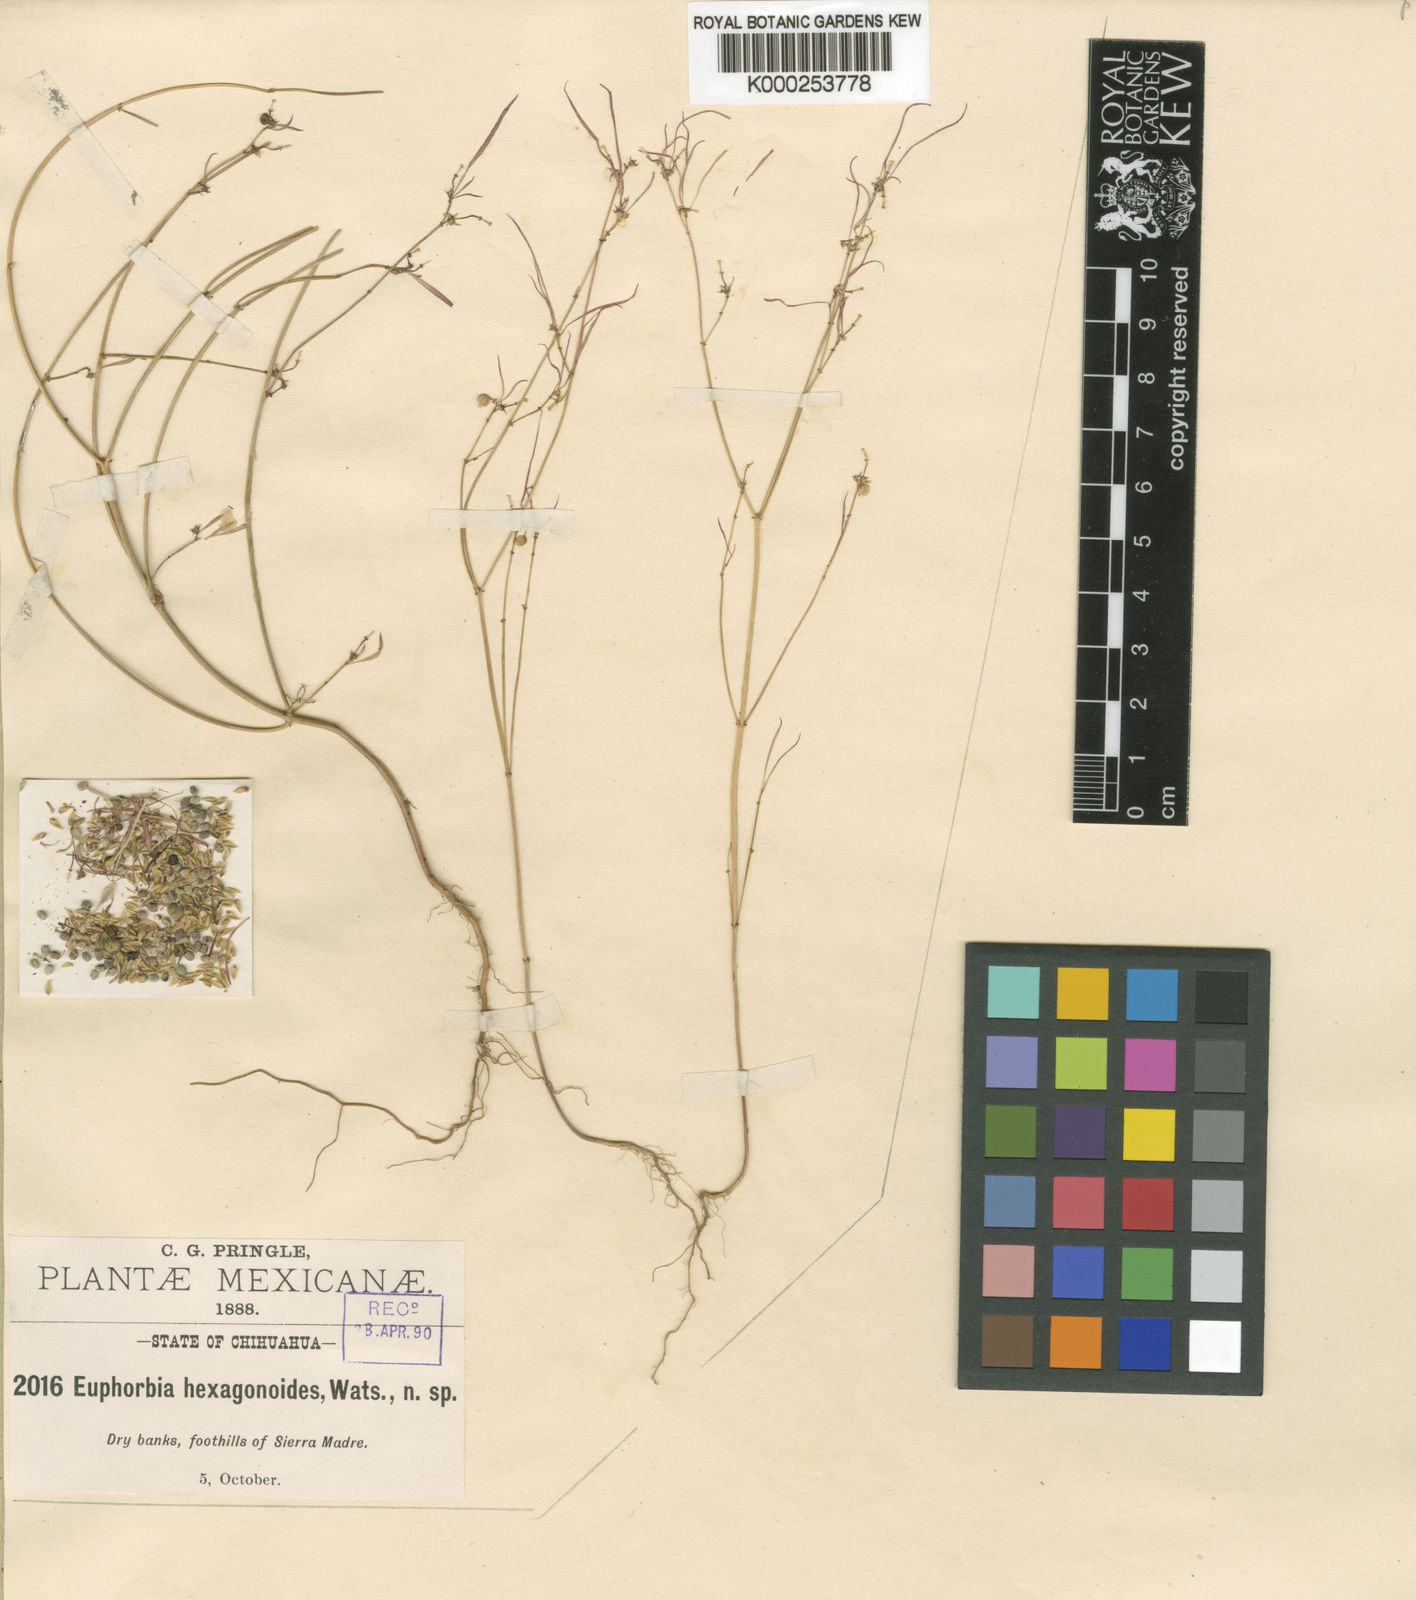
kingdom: Plantae
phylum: Tracheophyta
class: Magnoliopsida
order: Malpighiales
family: Euphorbiaceae
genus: Euphorbia
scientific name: Euphorbia hexagonoides
